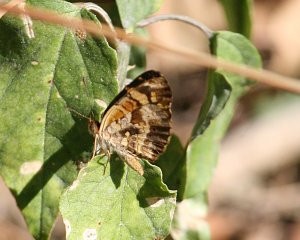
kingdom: Animalia
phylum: Arthropoda
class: Insecta
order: Lepidoptera
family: Nymphalidae
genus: Anthanassa
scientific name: Anthanassa frisia
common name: Cuban Crescent
